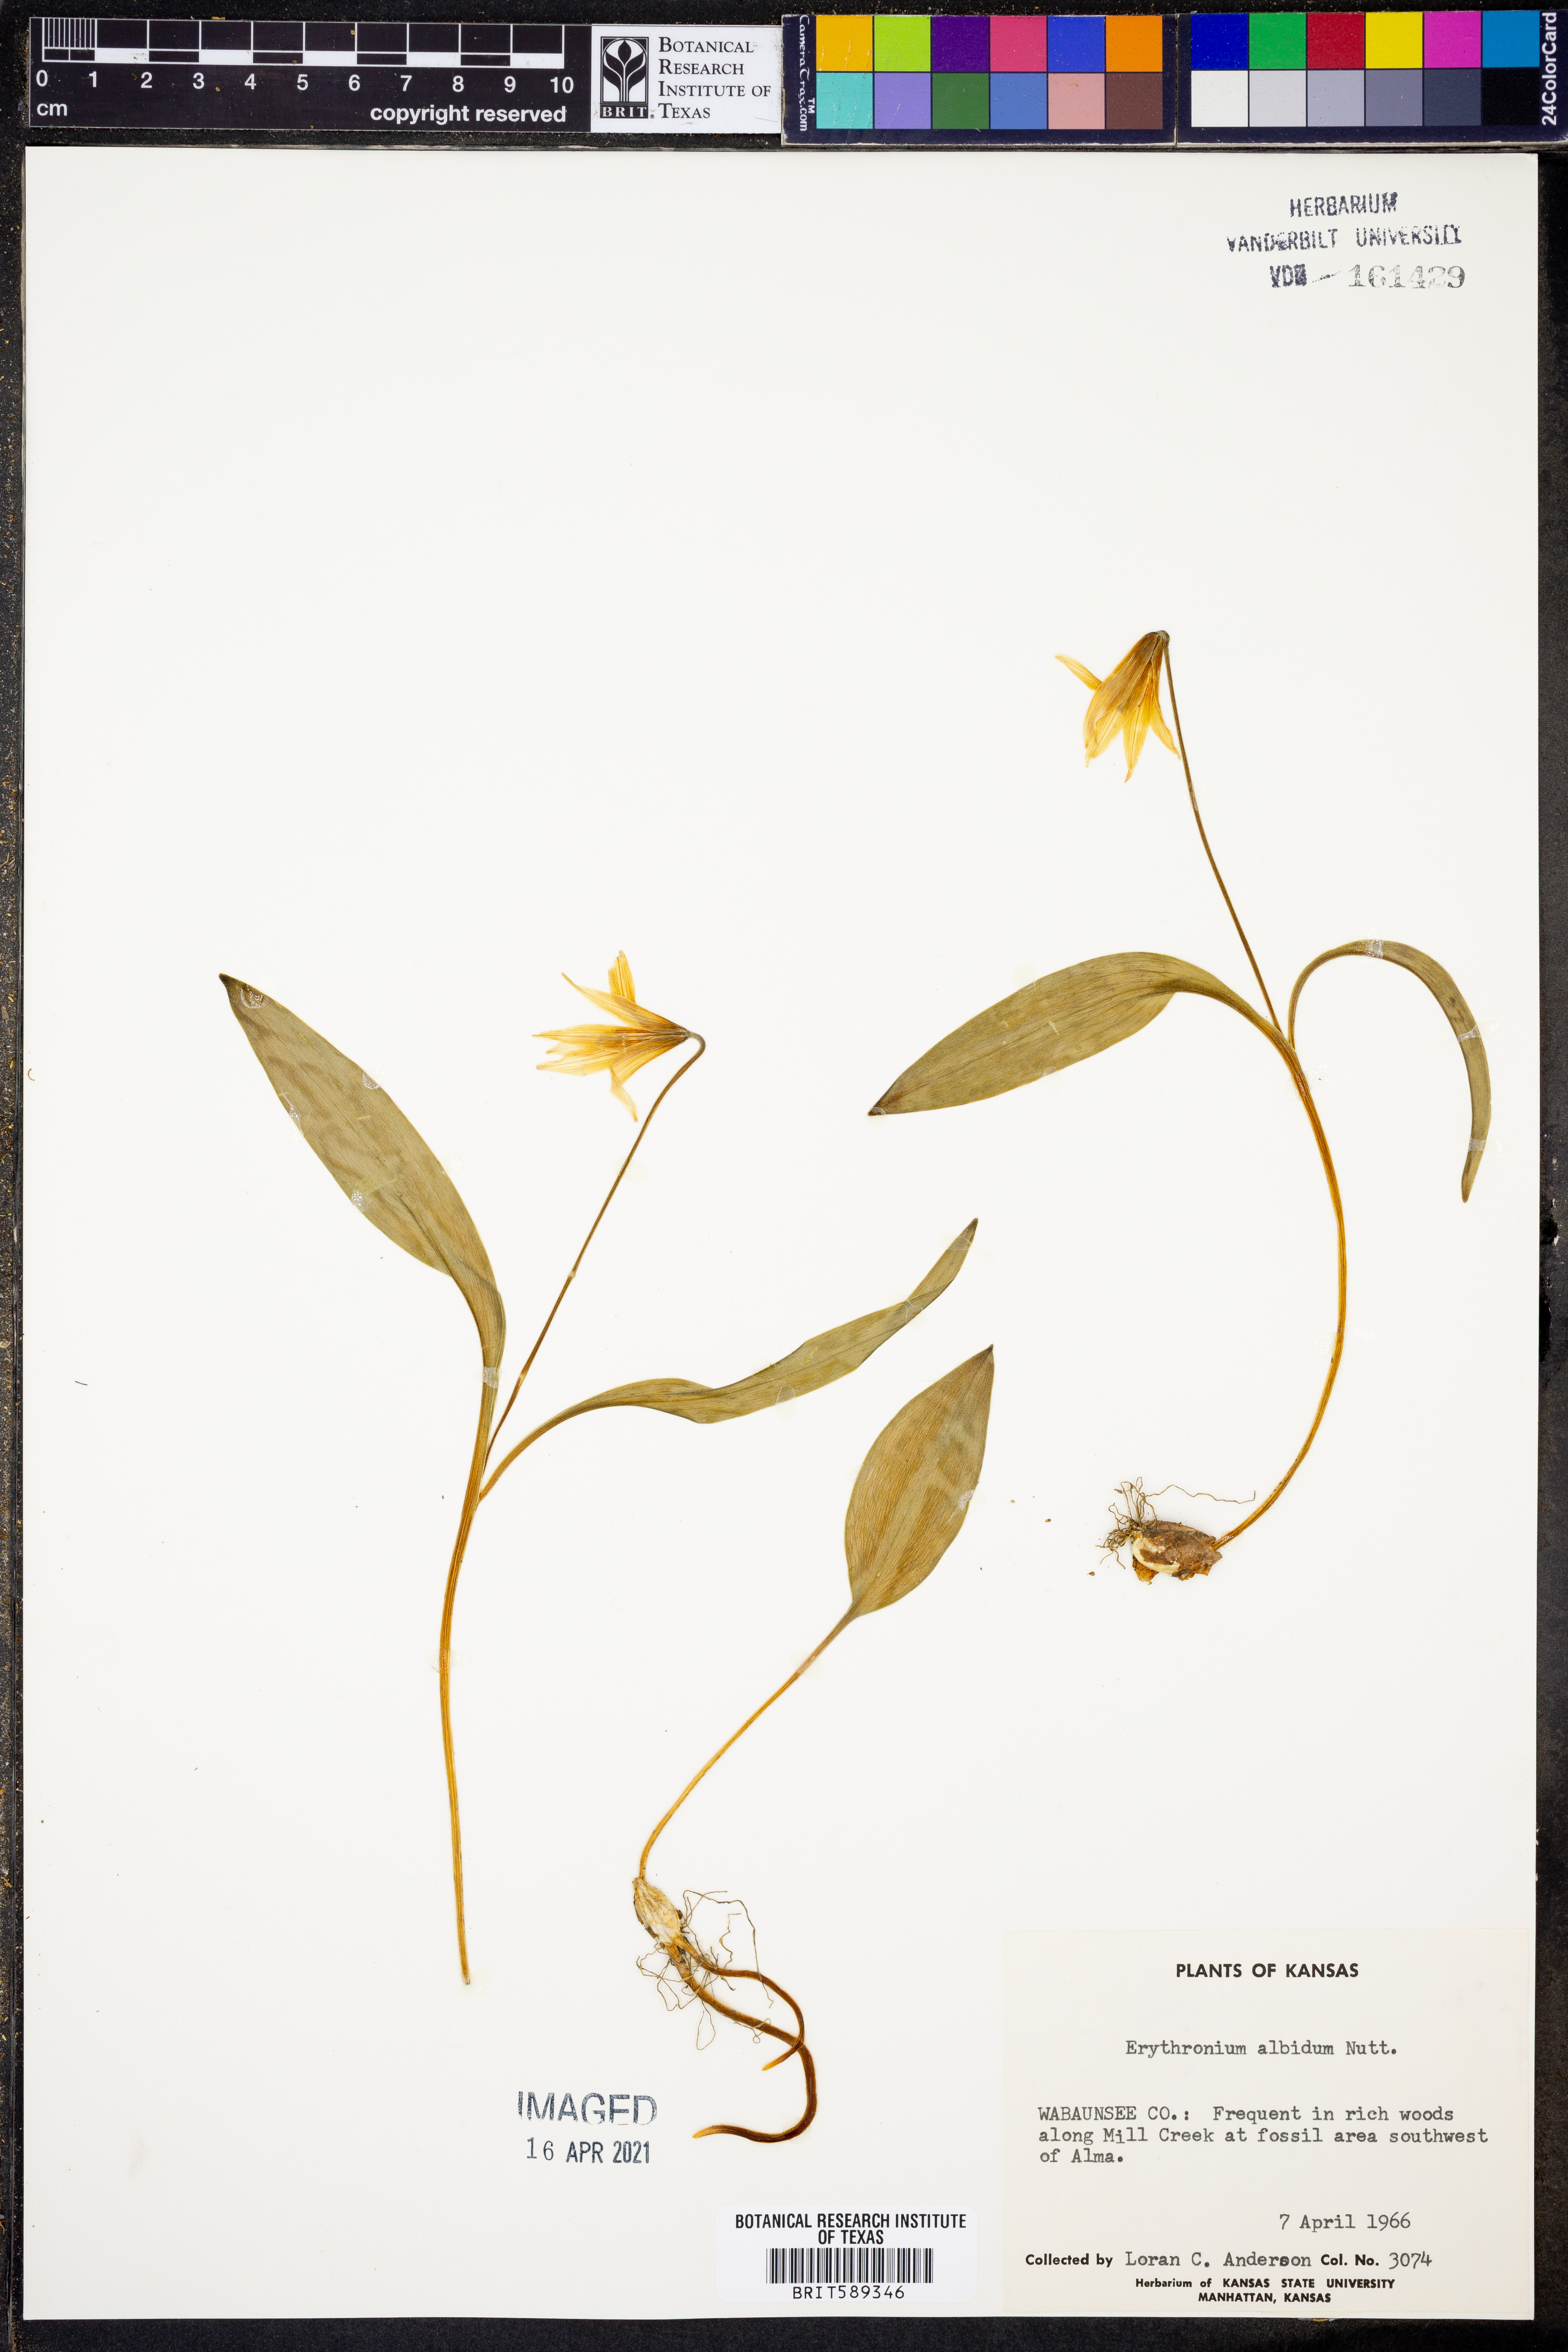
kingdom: Plantae
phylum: Tracheophyta
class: Liliopsida
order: Liliales
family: Liliaceae
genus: Erythronium
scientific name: Erythronium albidum
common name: White trout-lily
